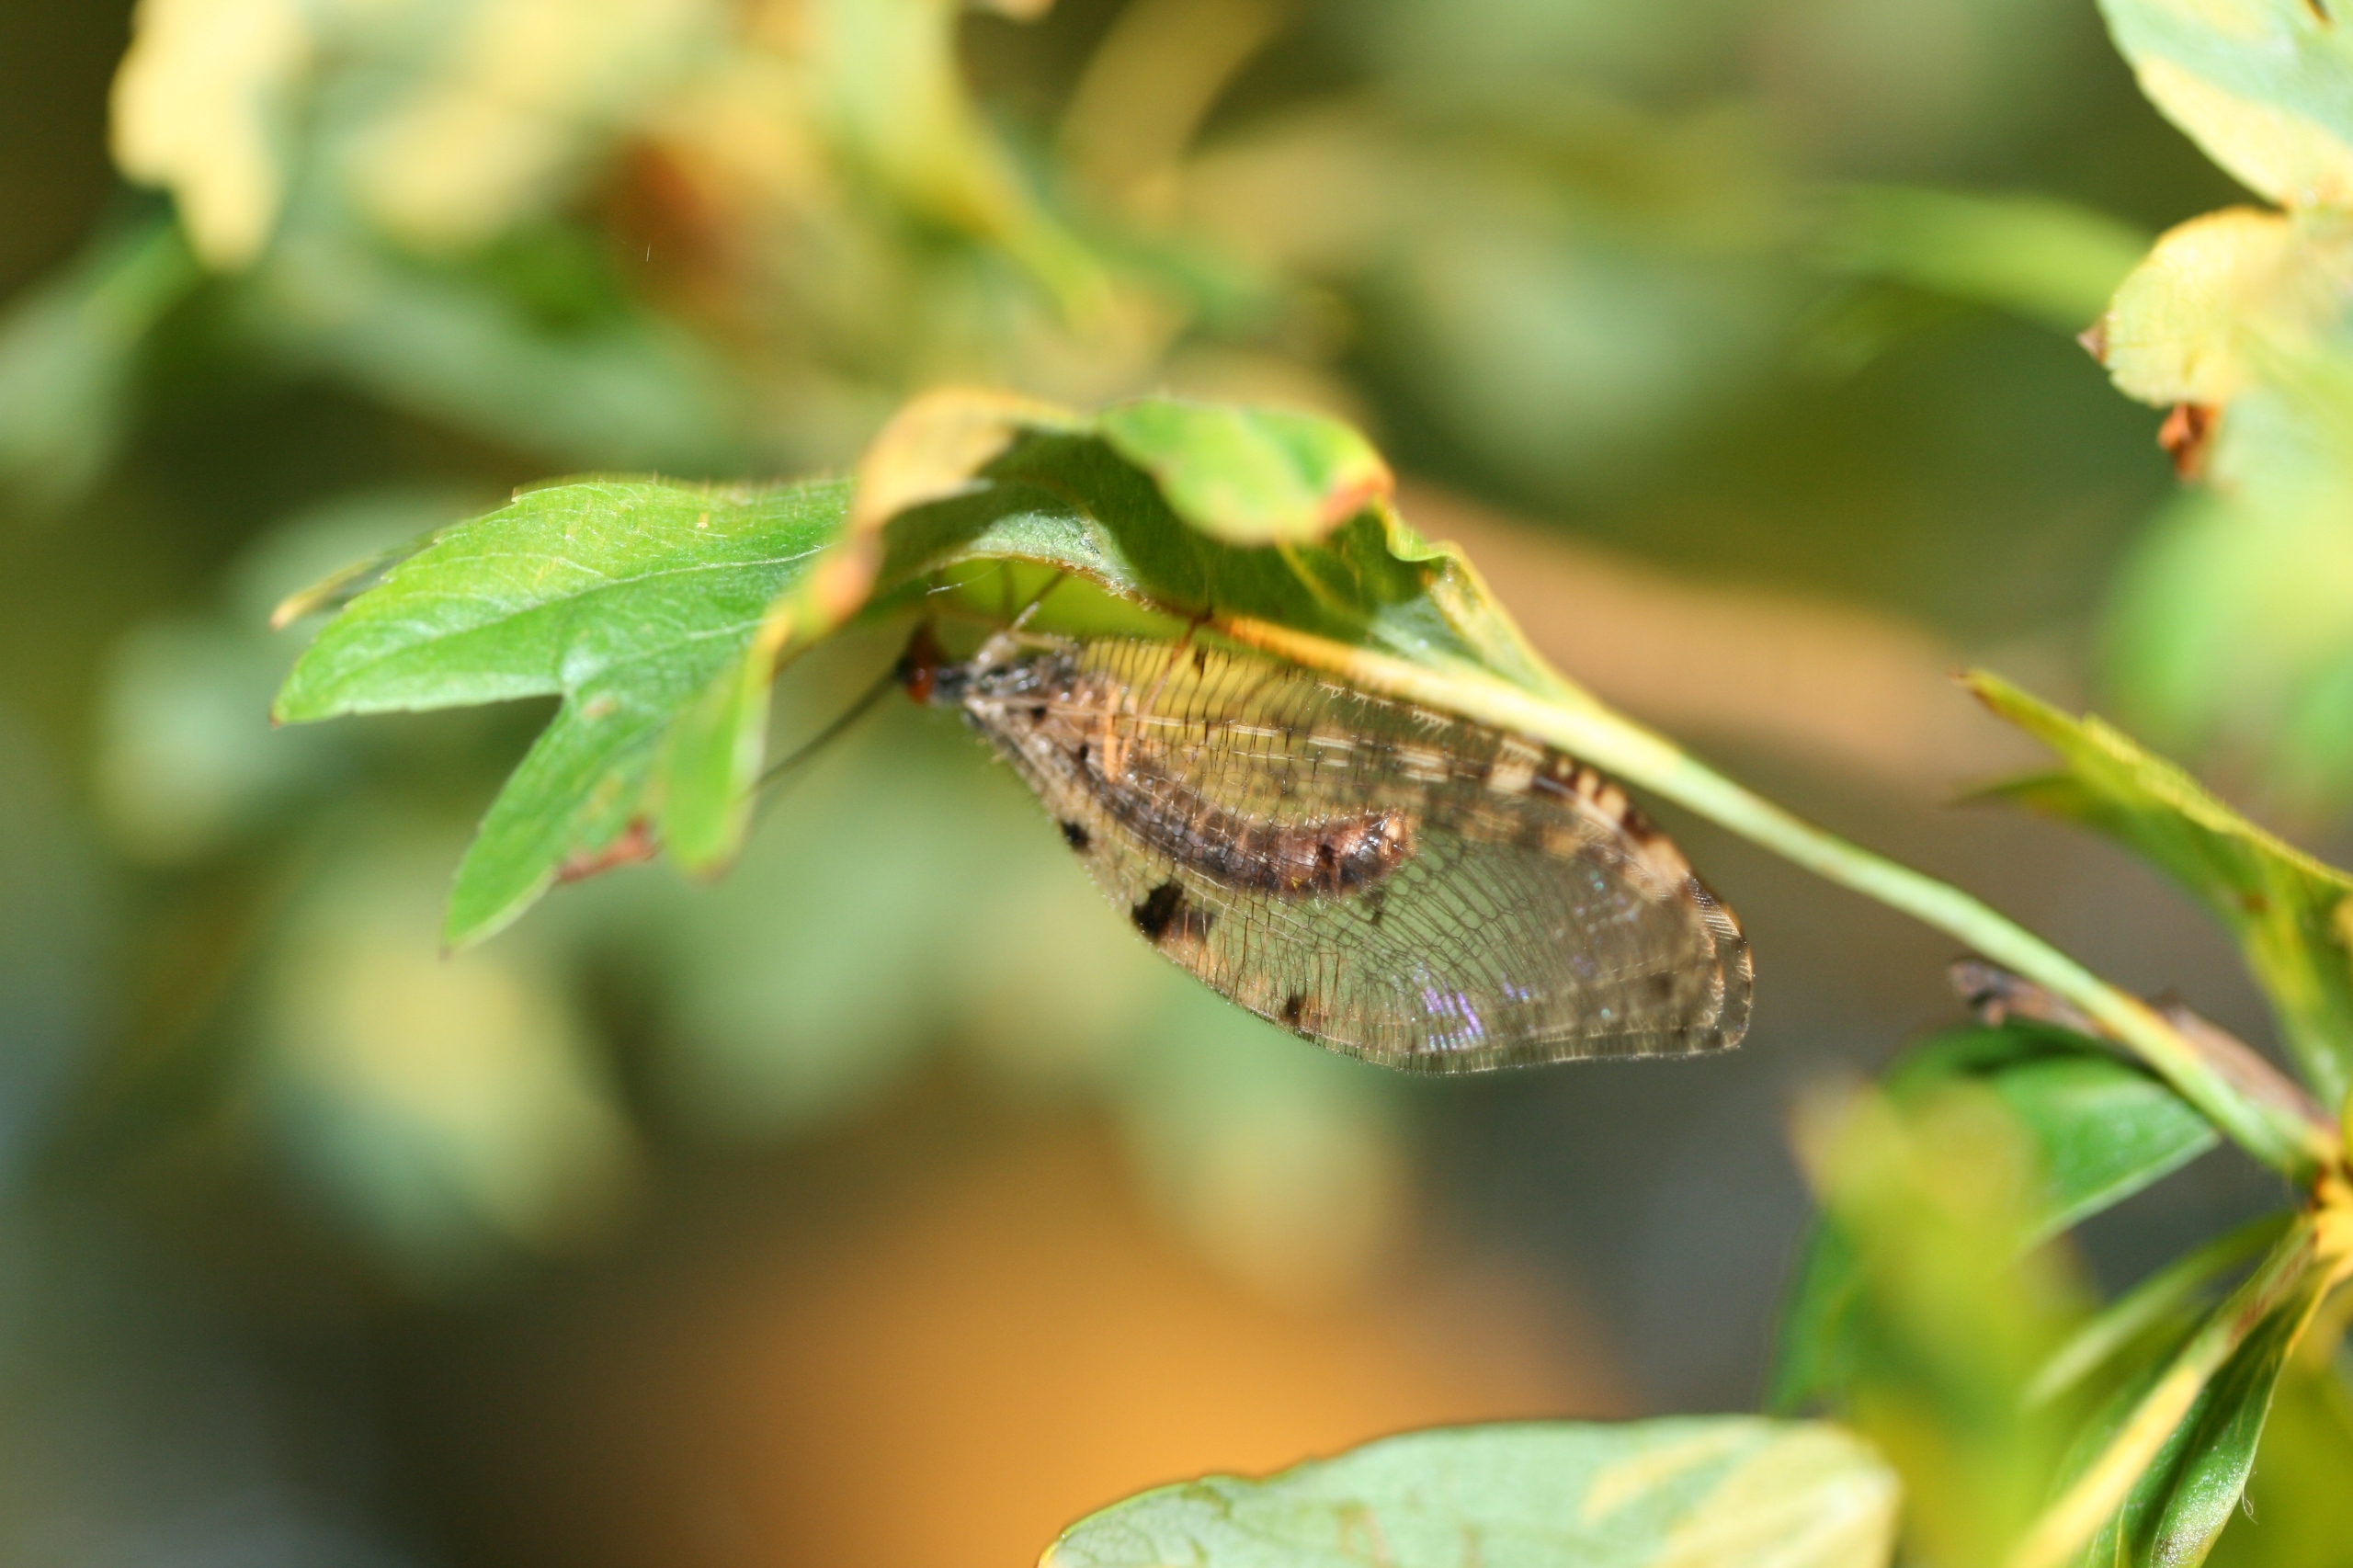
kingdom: Animalia
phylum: Arthropoda
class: Insecta
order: Neuroptera
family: Osmylidae
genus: Osmylus
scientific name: Osmylus fulvicephalus
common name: Vandmyreløve
